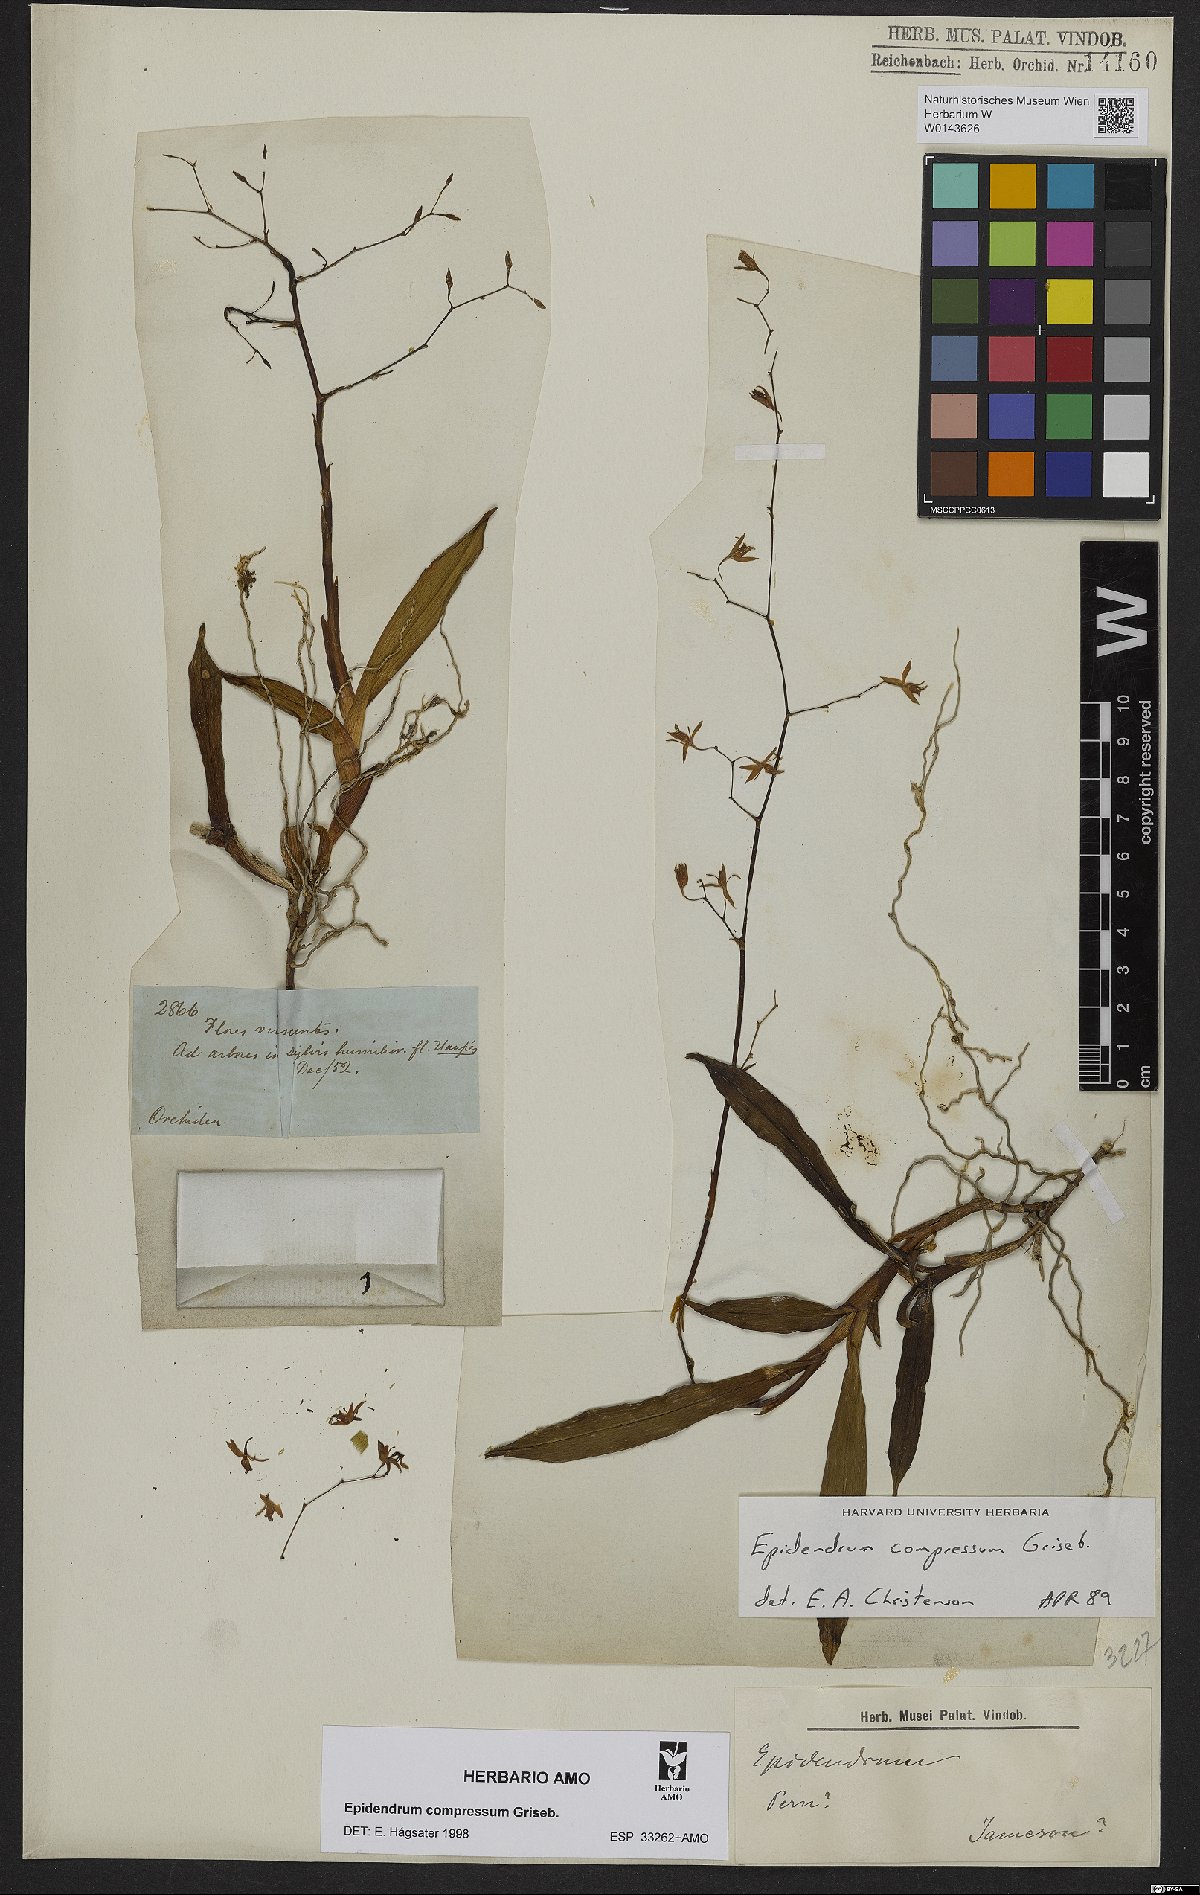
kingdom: Plantae
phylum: Tracheophyta
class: Liliopsida
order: Asparagales
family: Orchidaceae
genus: Epidendrum
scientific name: Epidendrum compressum
